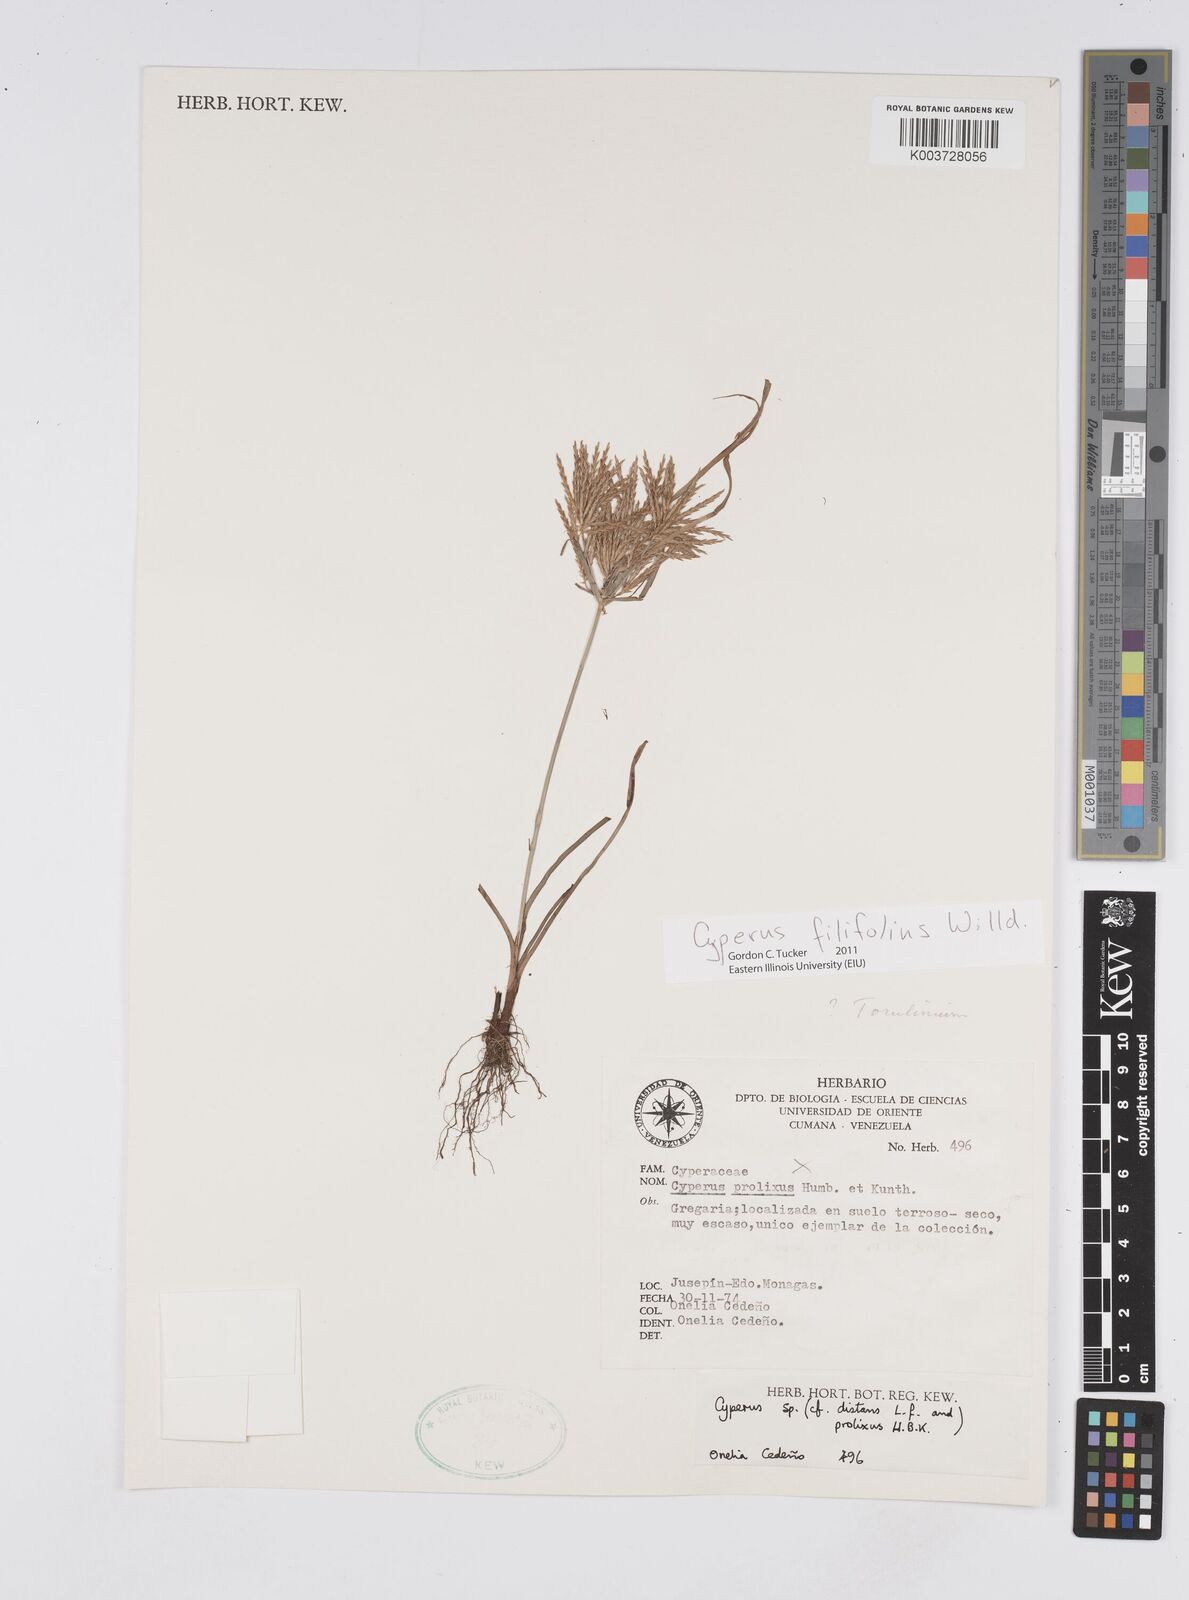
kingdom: Plantae
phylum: Tracheophyta
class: Liliopsida
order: Poales
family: Cyperaceae
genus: Cyperus
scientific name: Cyperus filifolius
